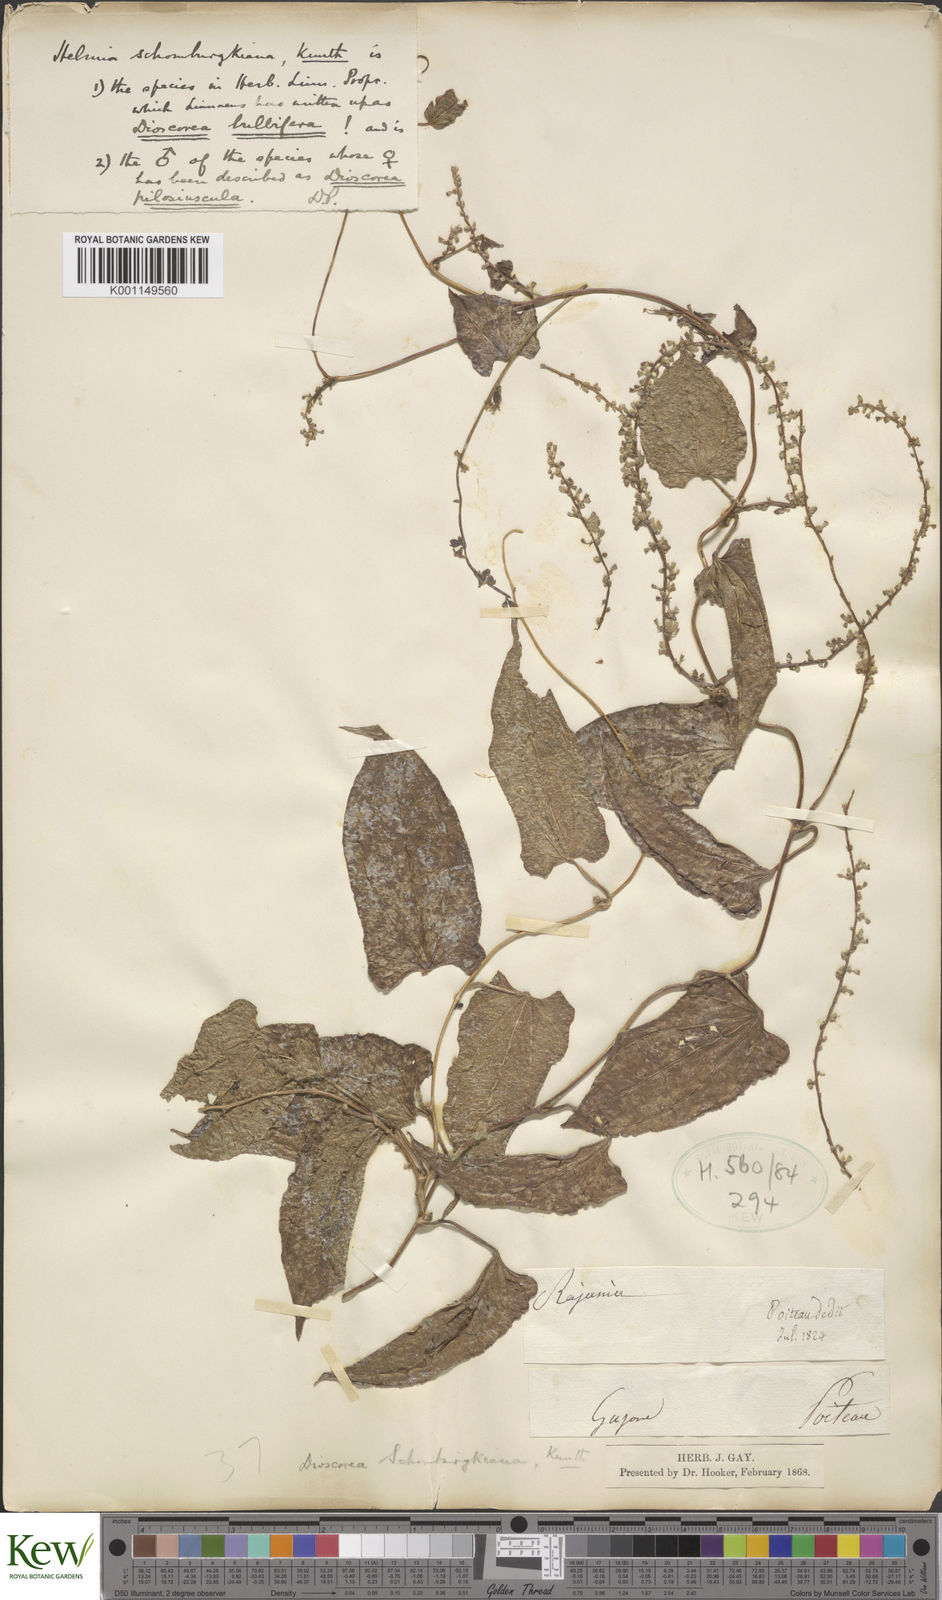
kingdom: Plantae
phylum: Tracheophyta
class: Liliopsida
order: Dioscoreales
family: Dioscoreaceae
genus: Dioscorea
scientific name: Dioscorea pilosiuscula
